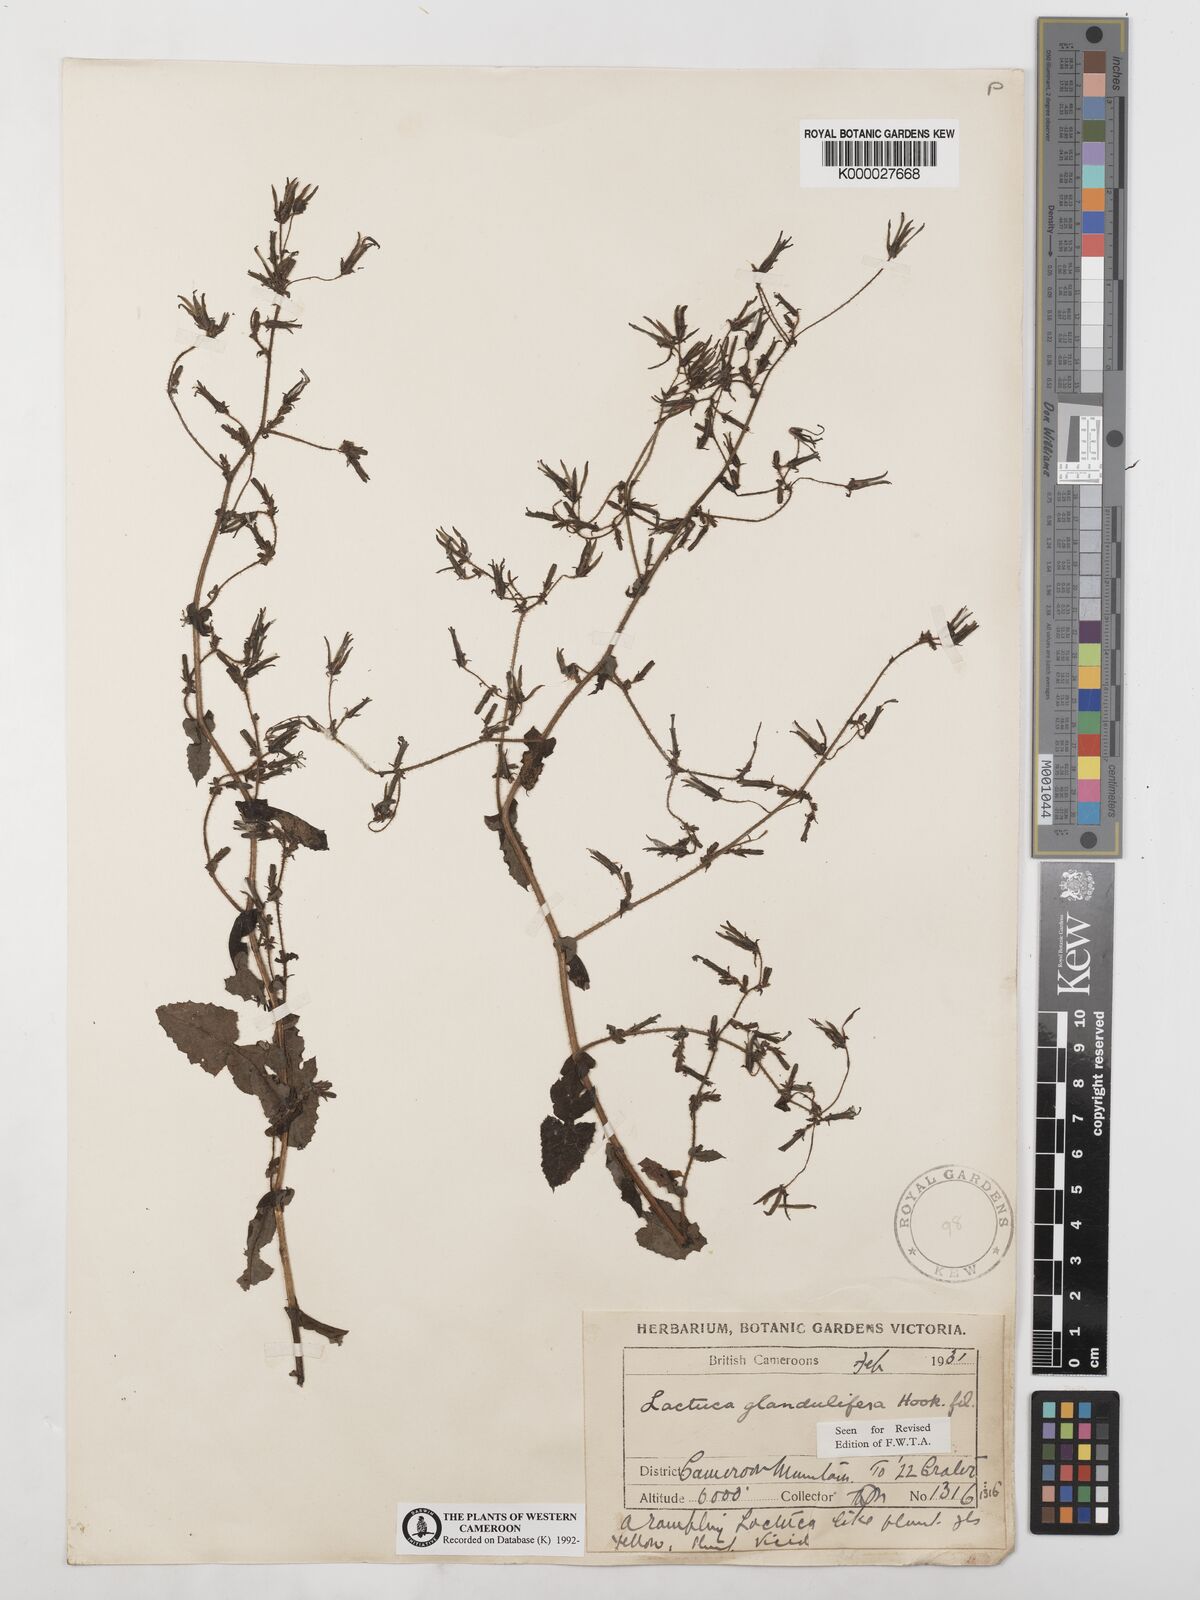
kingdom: Plantae
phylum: Tracheophyta
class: Magnoliopsida
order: Asterales
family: Asteraceae
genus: Lactuca
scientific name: Lactuca glandulifera
